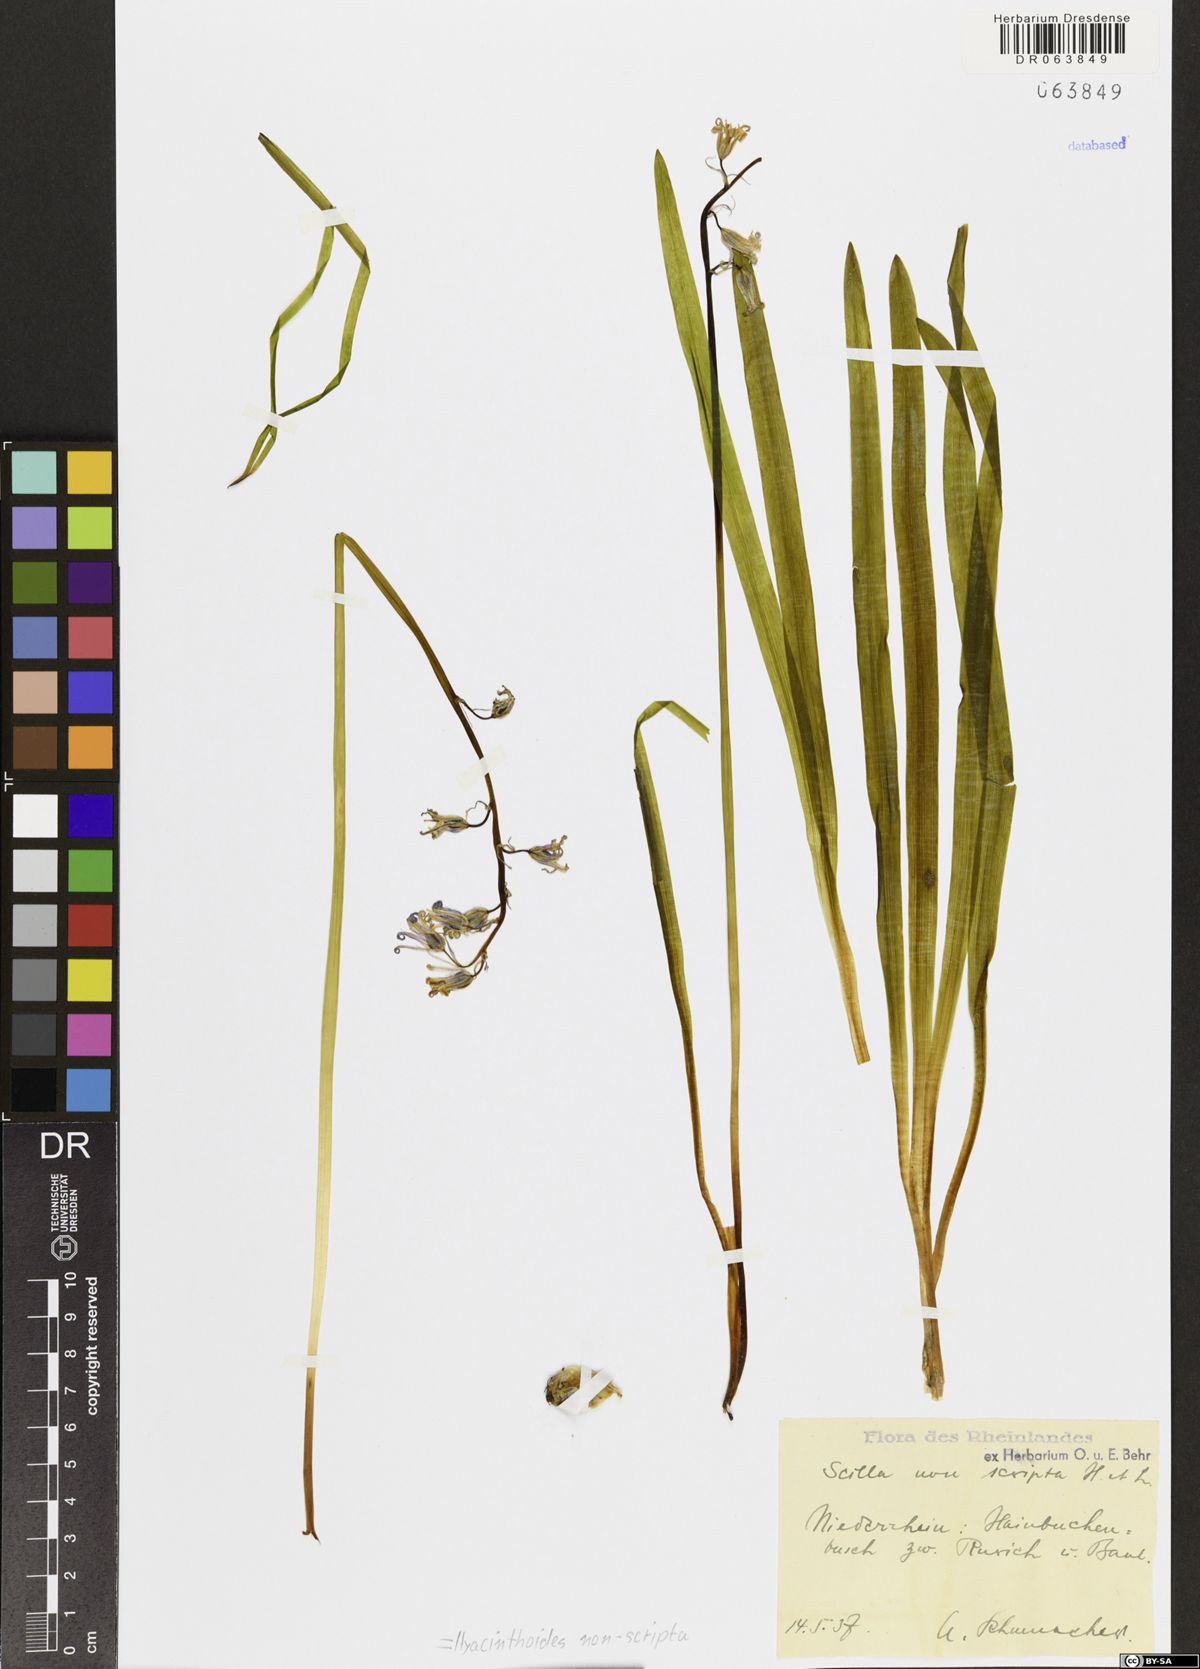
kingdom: Plantae
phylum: Tracheophyta
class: Liliopsida
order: Asparagales
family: Asparagaceae
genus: Hyacinthoides
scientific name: Hyacinthoides non-scripta
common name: Bluebell
